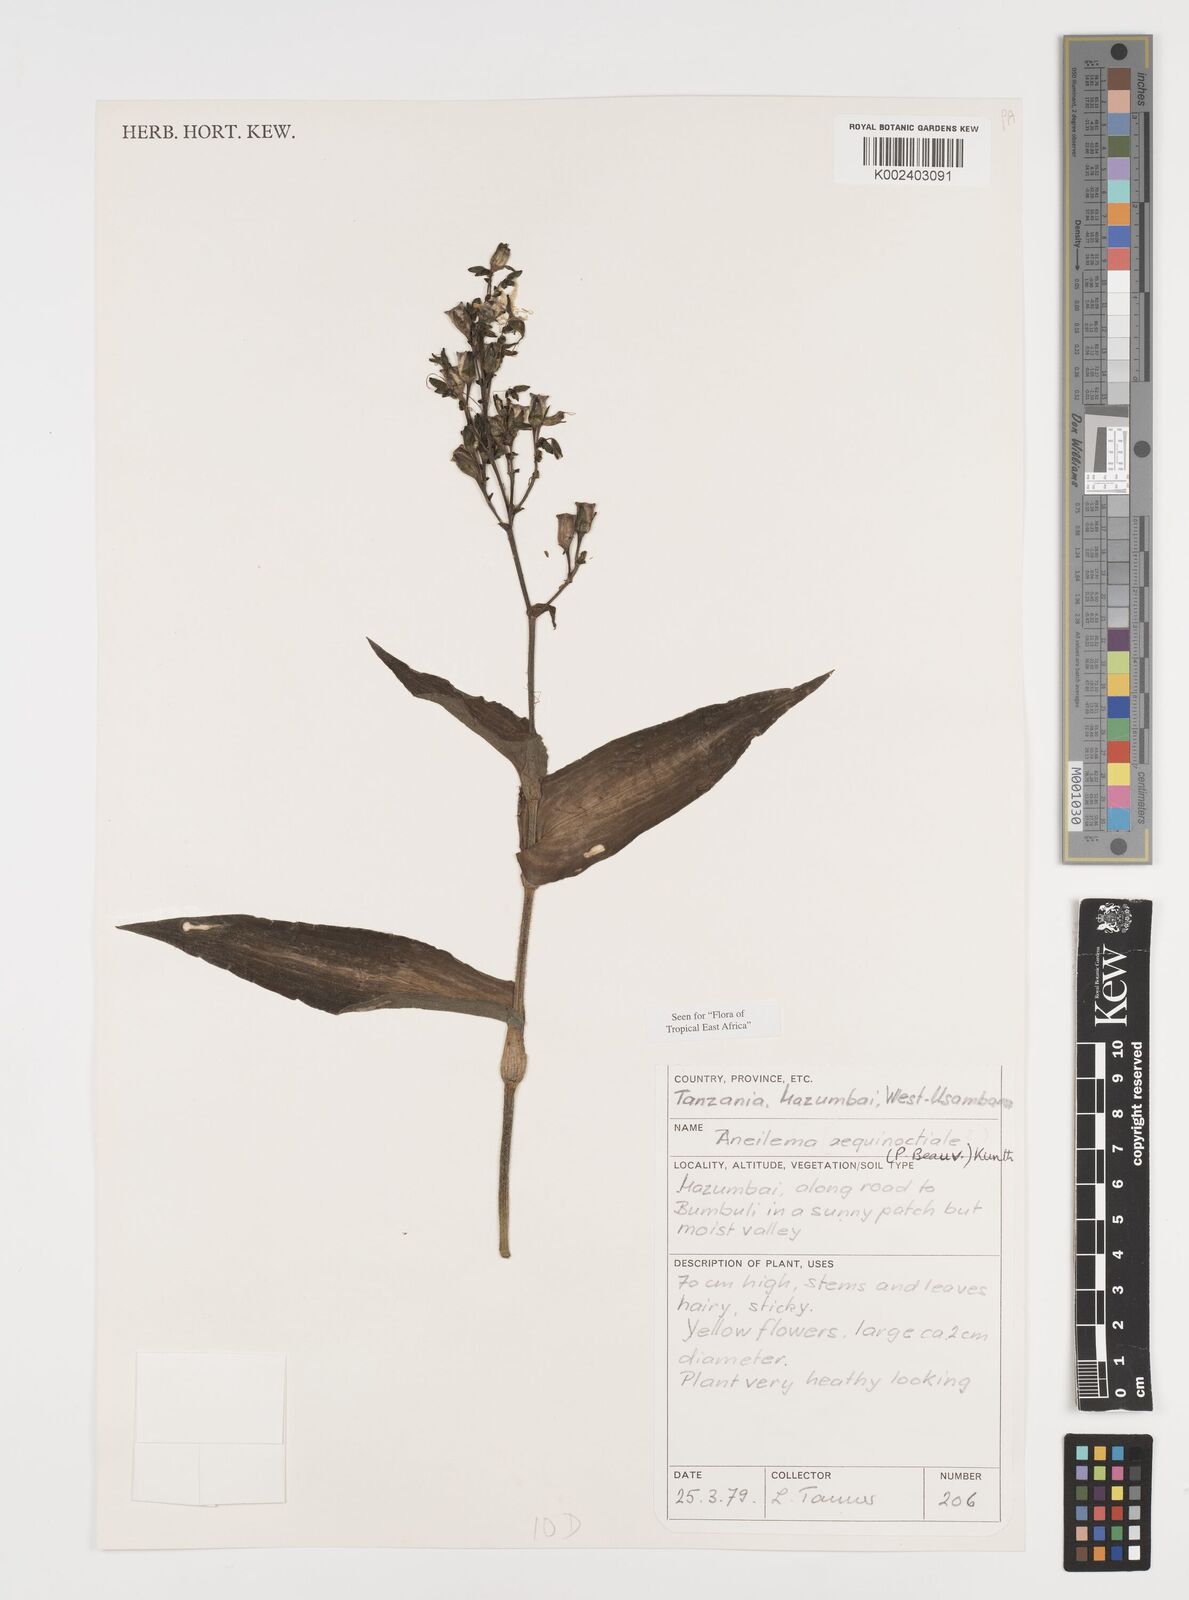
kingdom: Plantae
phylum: Tracheophyta
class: Liliopsida
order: Commelinales
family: Commelinaceae
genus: Aneilema
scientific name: Aneilema aequinoctiale
